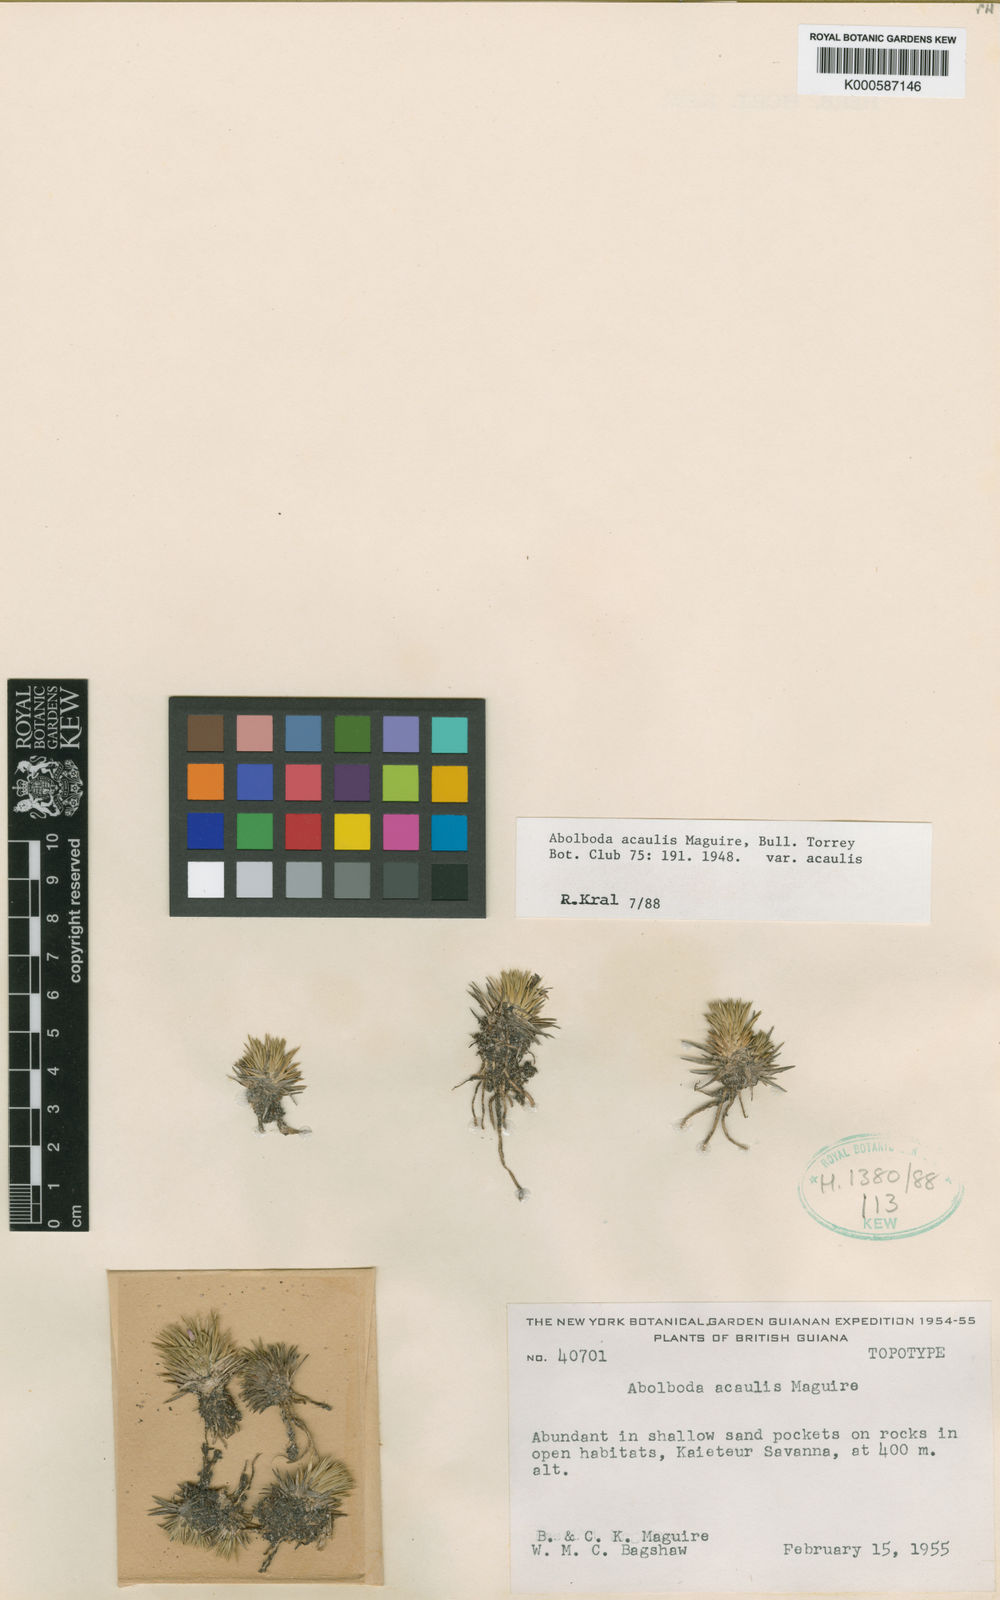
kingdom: Plantae
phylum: Tracheophyta
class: Liliopsida
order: Poales
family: Xyridaceae
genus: Abolboda
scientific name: Abolboda acaulis
